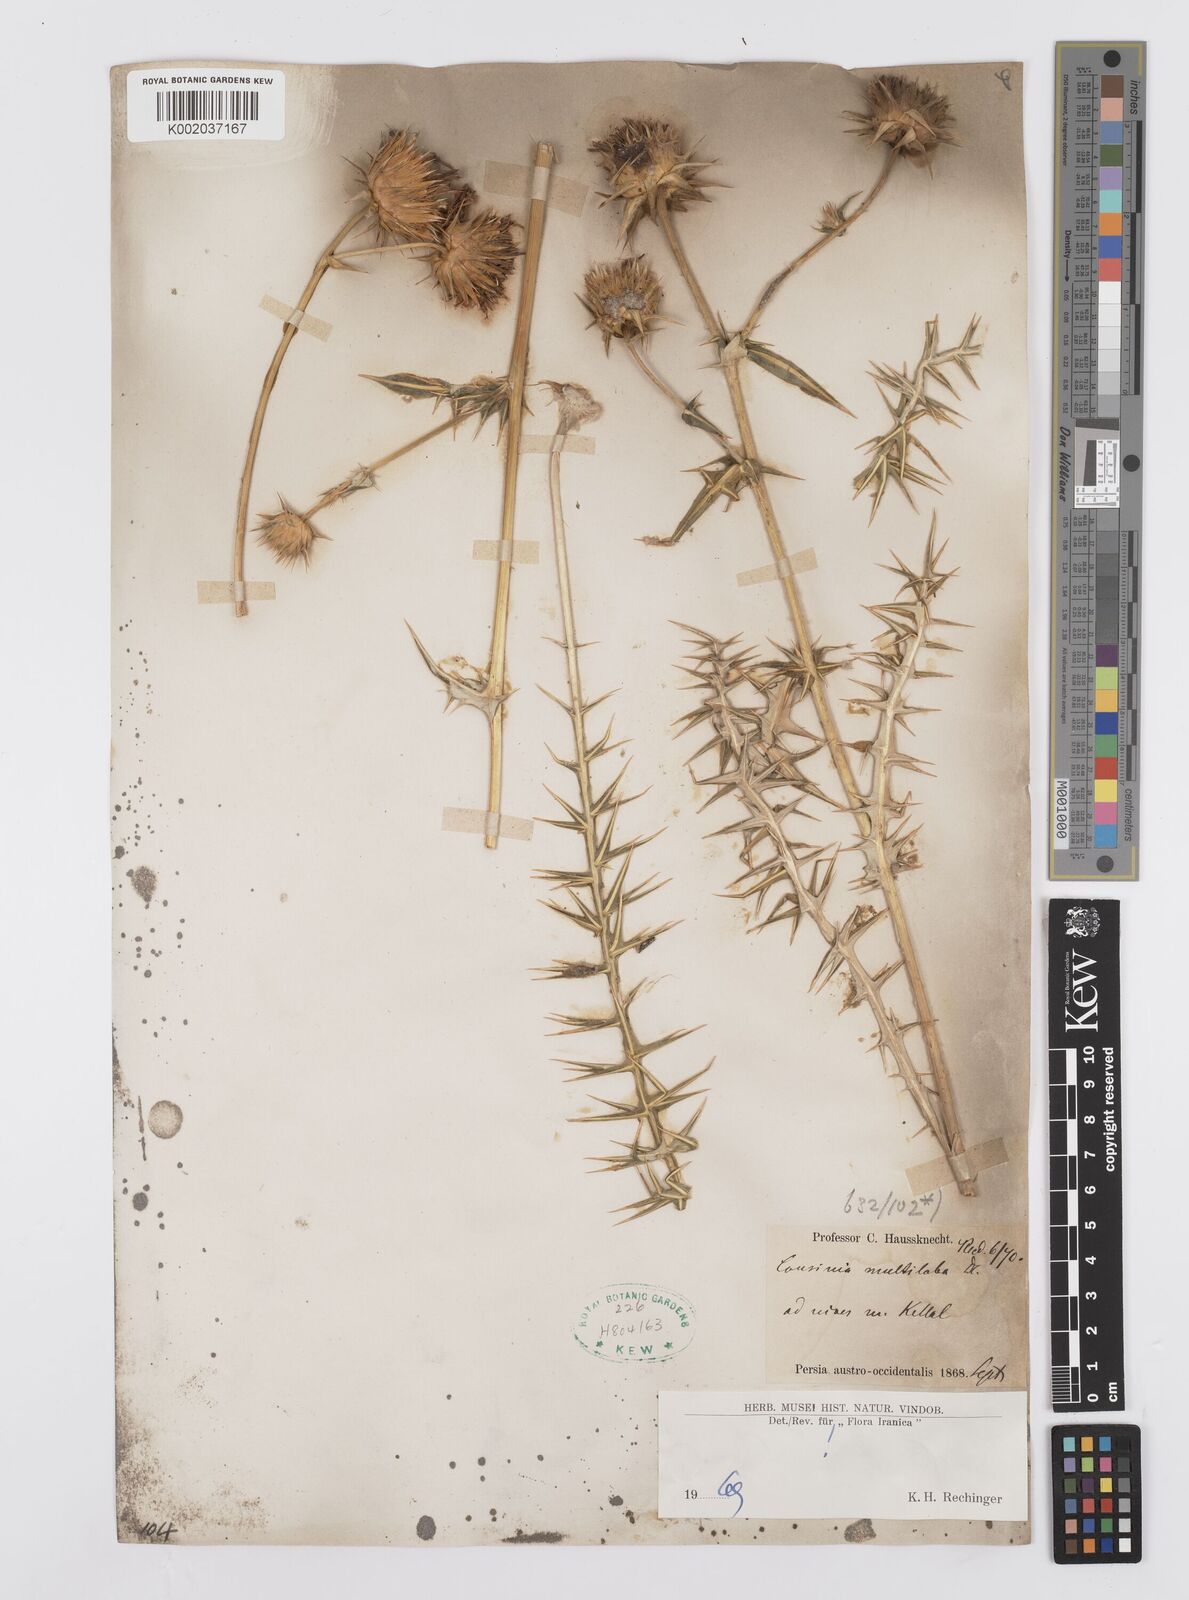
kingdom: Plantae
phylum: Tracheophyta
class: Magnoliopsida
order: Asterales
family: Asteraceae
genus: Cousinia
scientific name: Cousinia multiloba
